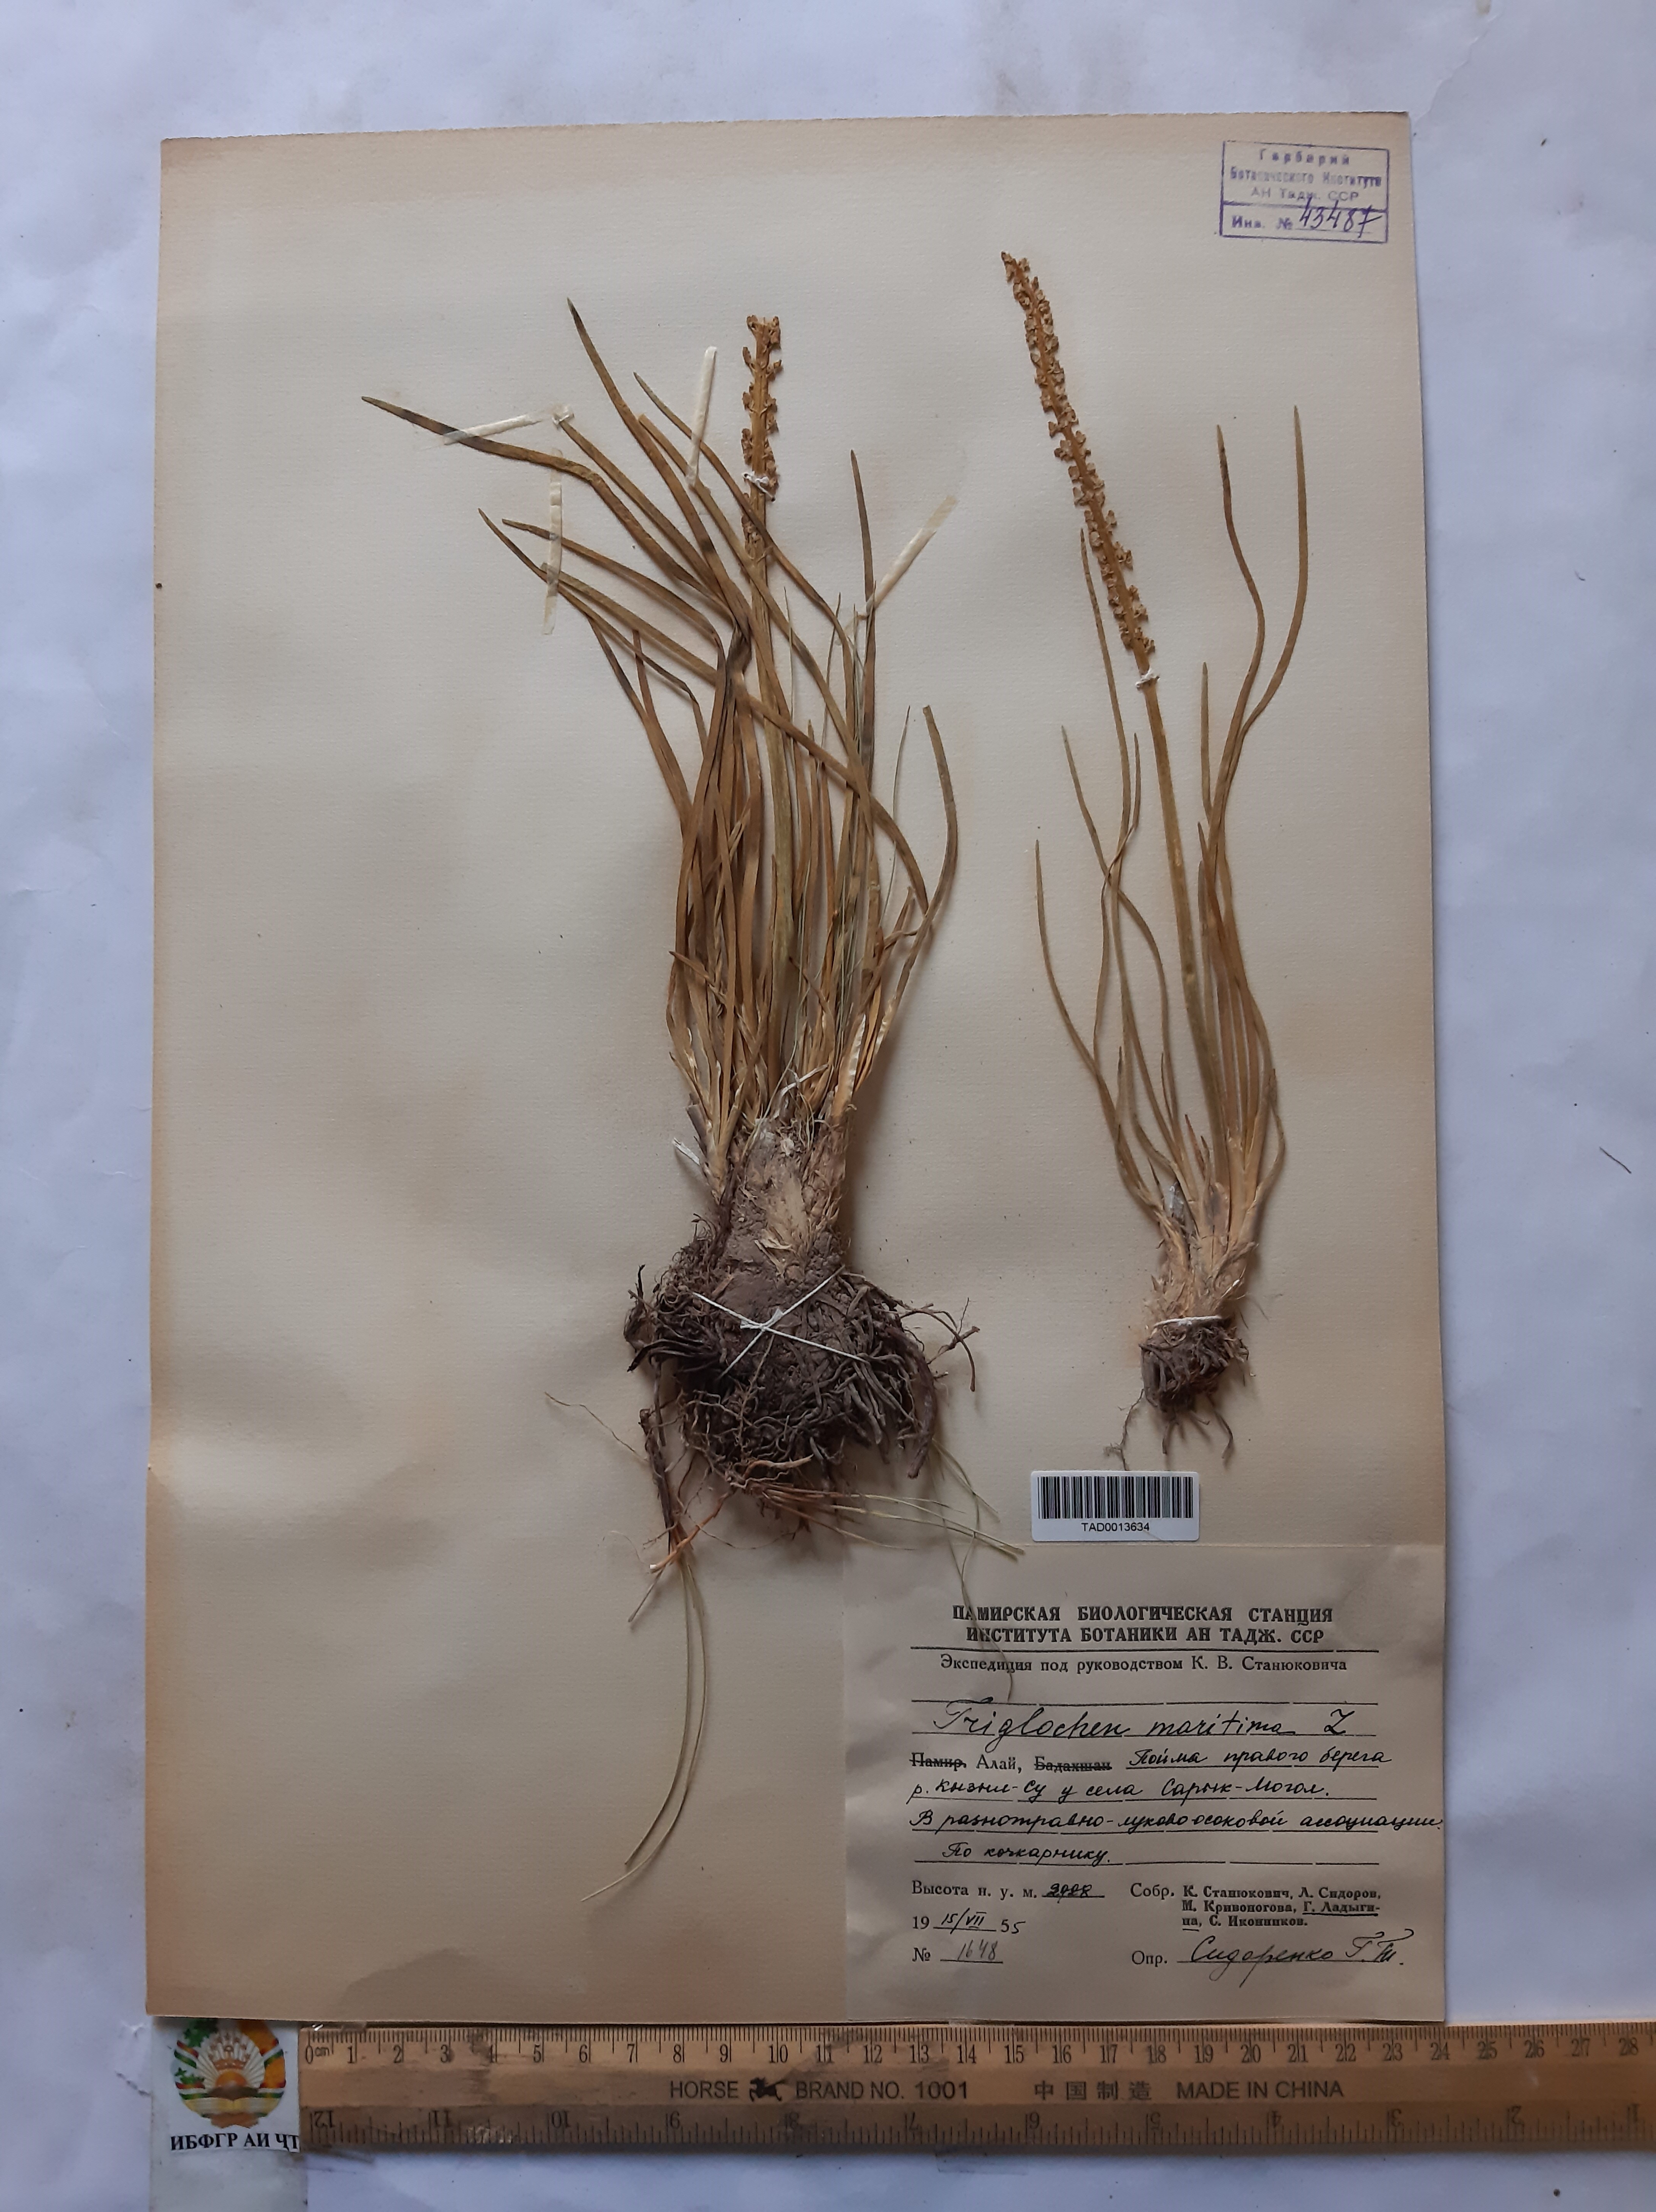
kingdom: Plantae
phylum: Tracheophyta
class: Liliopsida
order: Alismatales
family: Juncaginaceae
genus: Triglochin
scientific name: Triglochin maritima
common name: Sea arrowgrass
